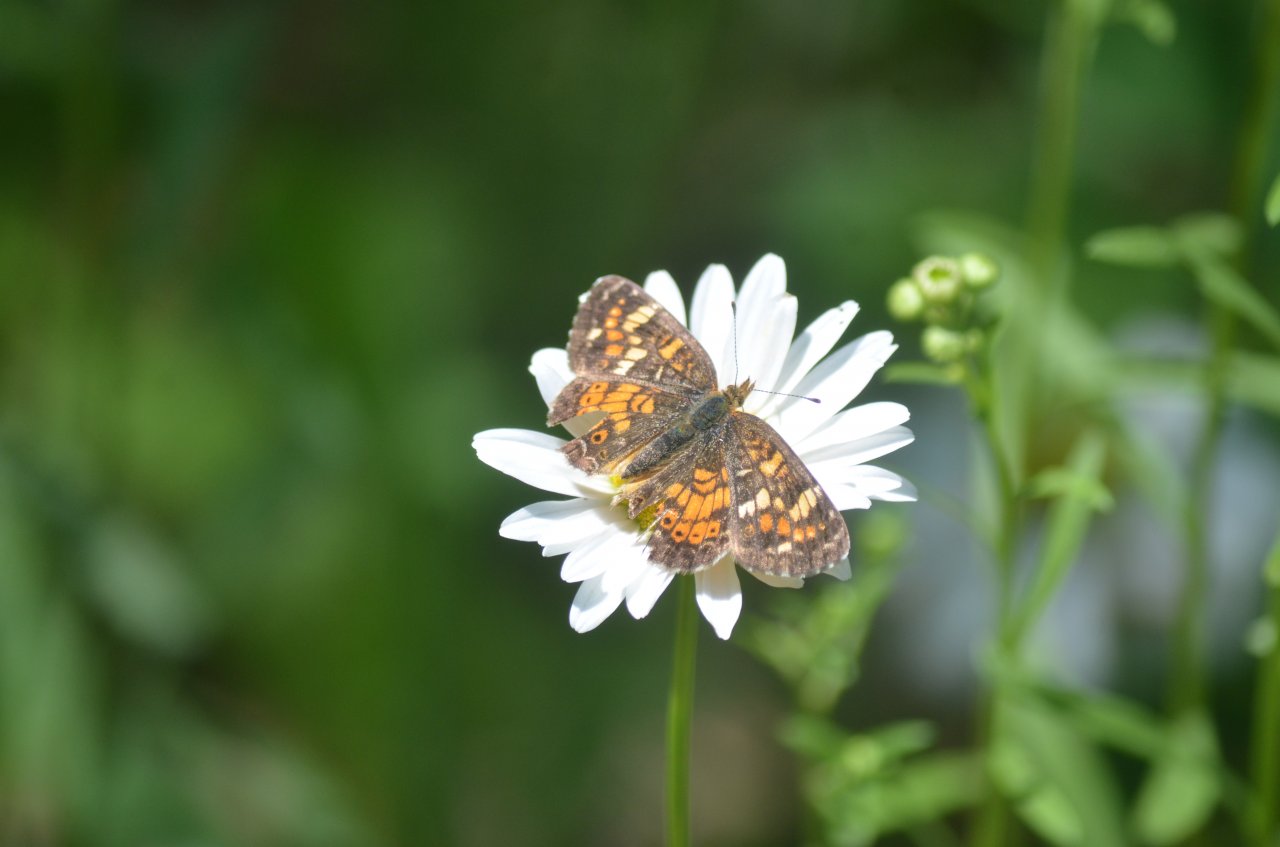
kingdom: Animalia
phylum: Arthropoda
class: Insecta
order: Lepidoptera
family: Nymphalidae
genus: Phyciodes
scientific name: Phyciodes tharos
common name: Northern Crescent
